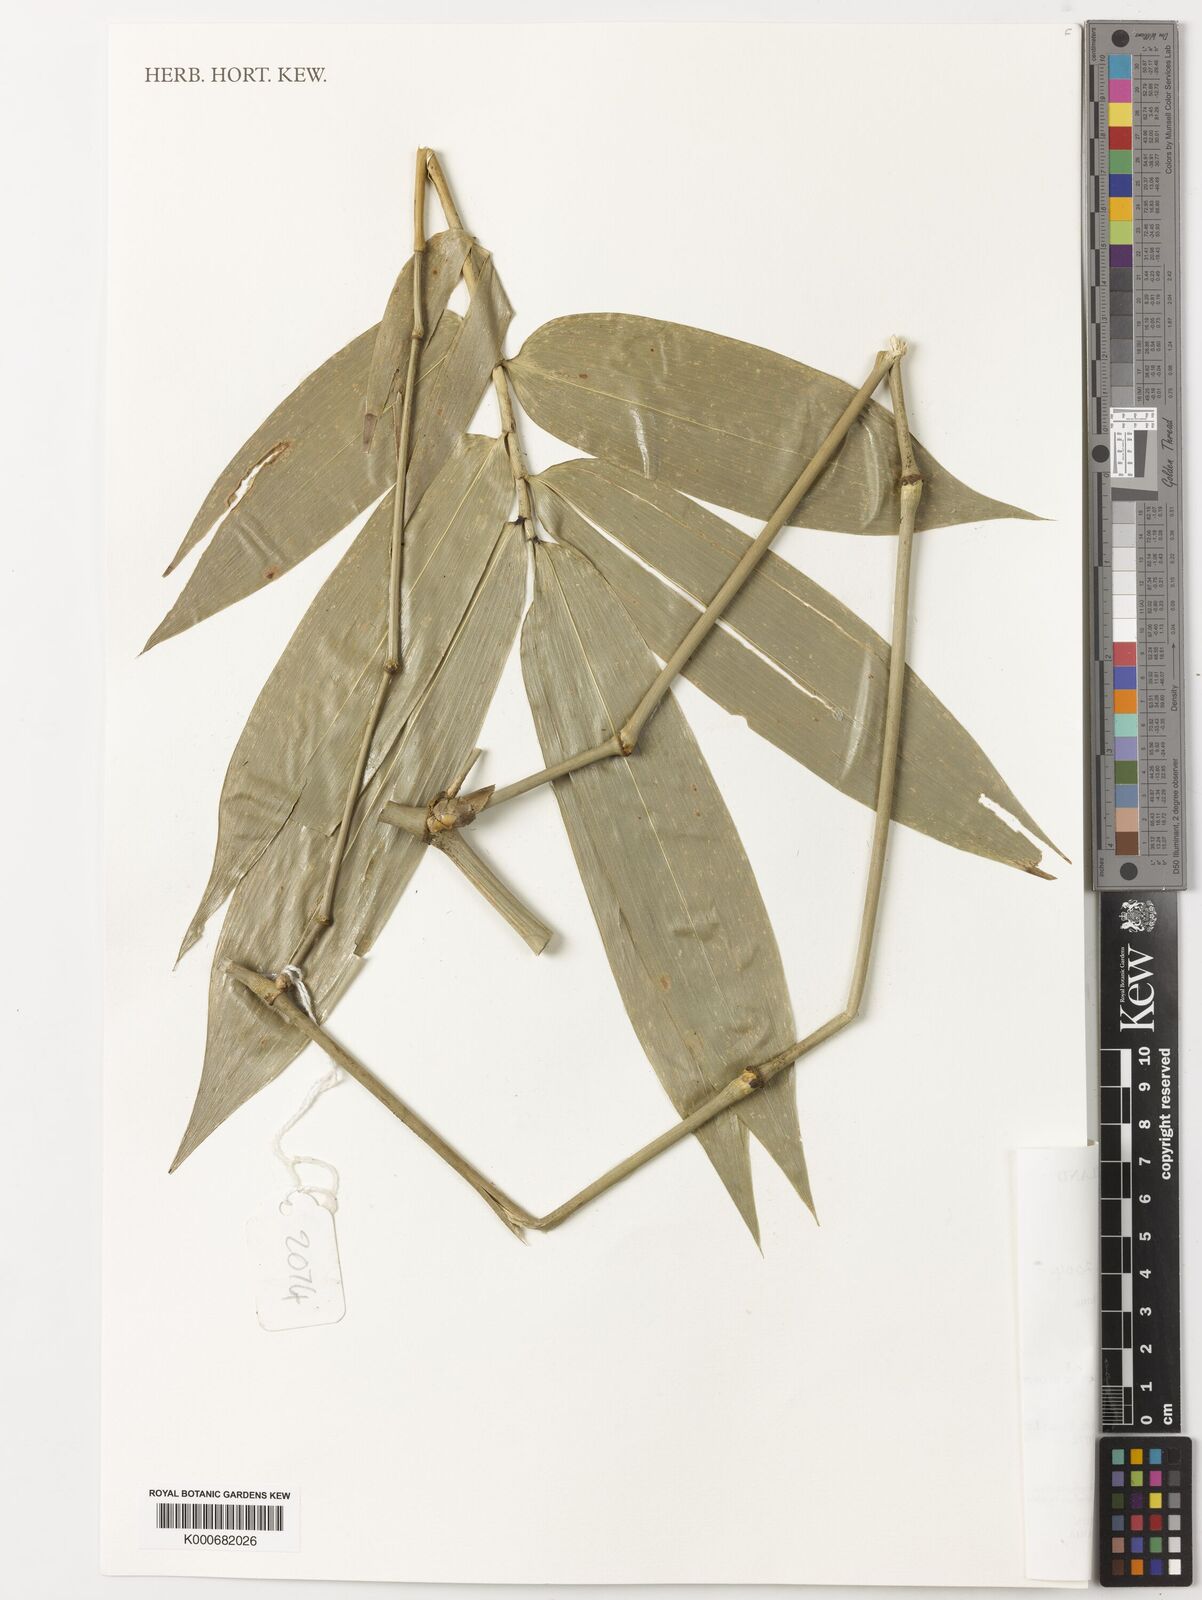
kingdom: Plantae
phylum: Tracheophyta
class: Liliopsida
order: Poales
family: Poaceae
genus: Dinochloa
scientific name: Dinochloa malayana
